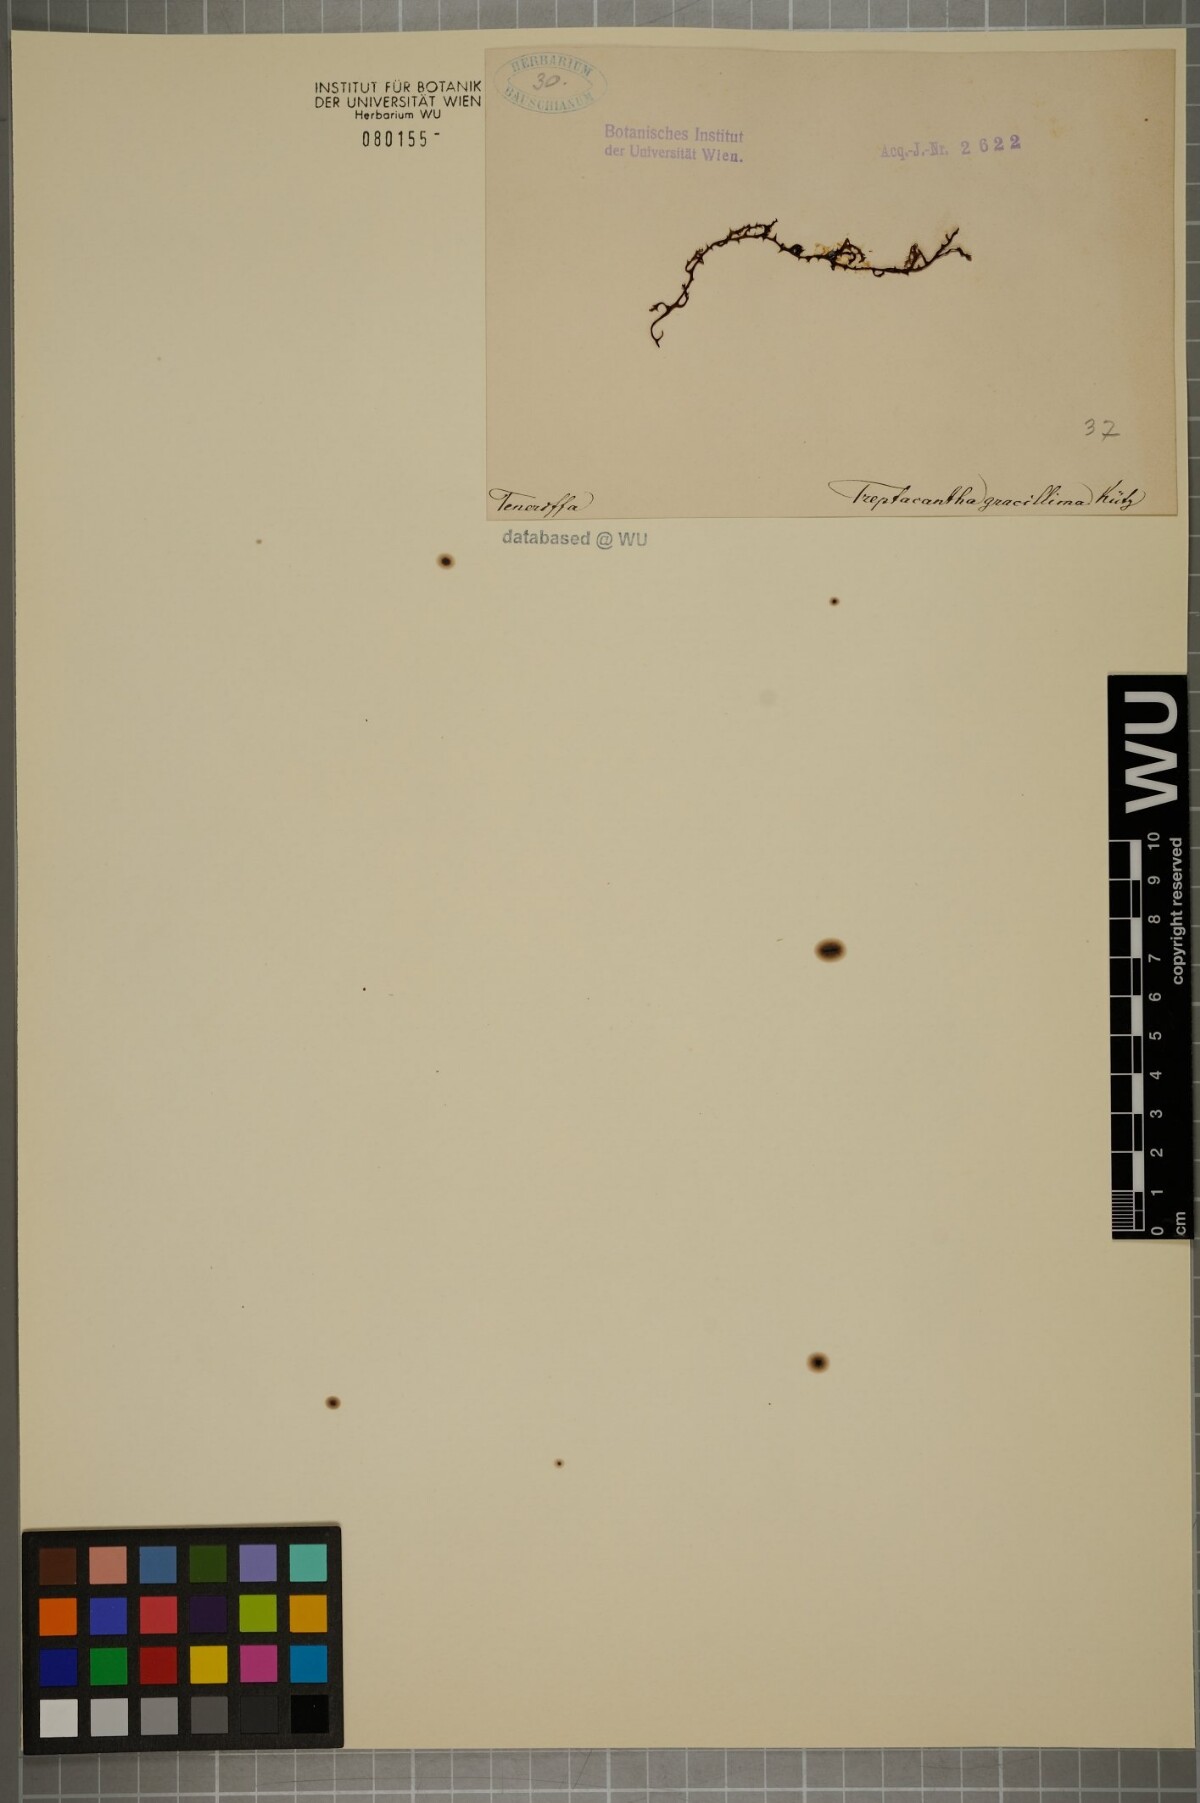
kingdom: Chromista
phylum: Ochrophyta
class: Phaeophyceae
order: Fucales
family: Sargassaceae
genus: Cystoseira
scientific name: Cystoseira Gongolaria abies-marina
